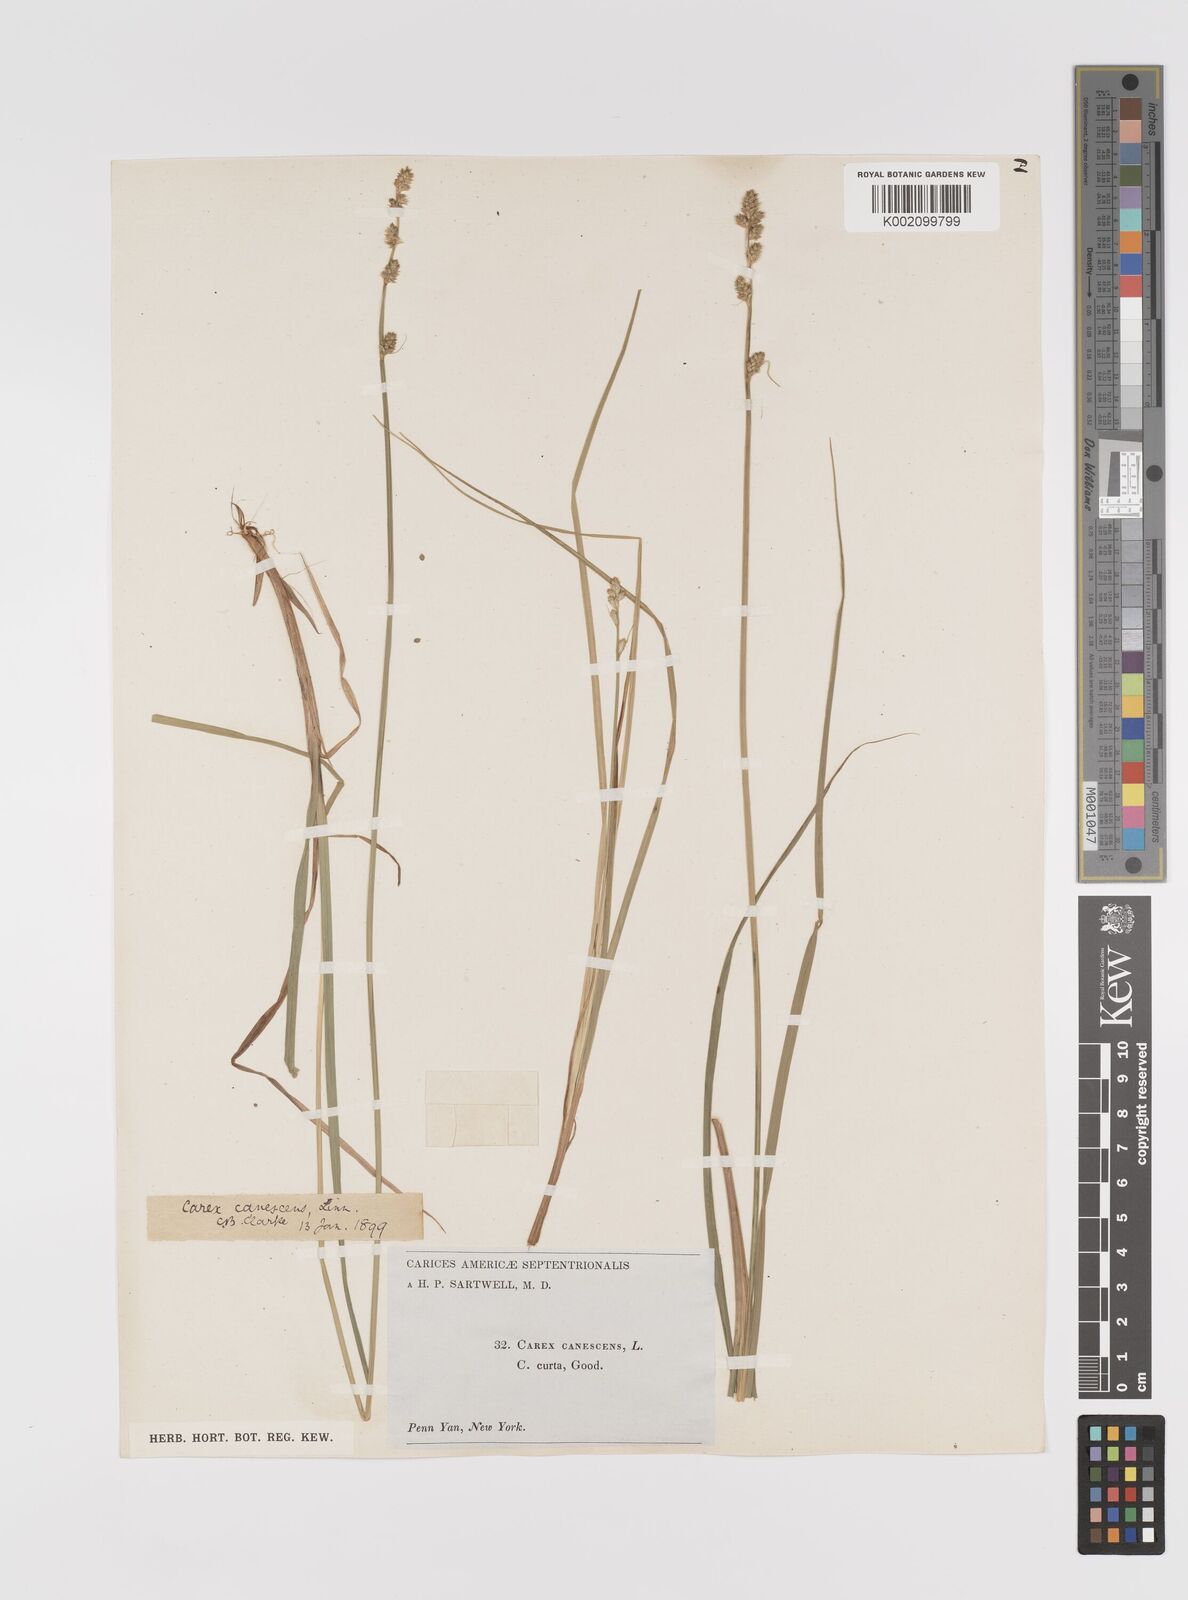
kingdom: Plantae
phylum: Tracheophyta
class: Liliopsida
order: Poales
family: Cyperaceae
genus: Carex
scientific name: Carex curta
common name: White sedge
